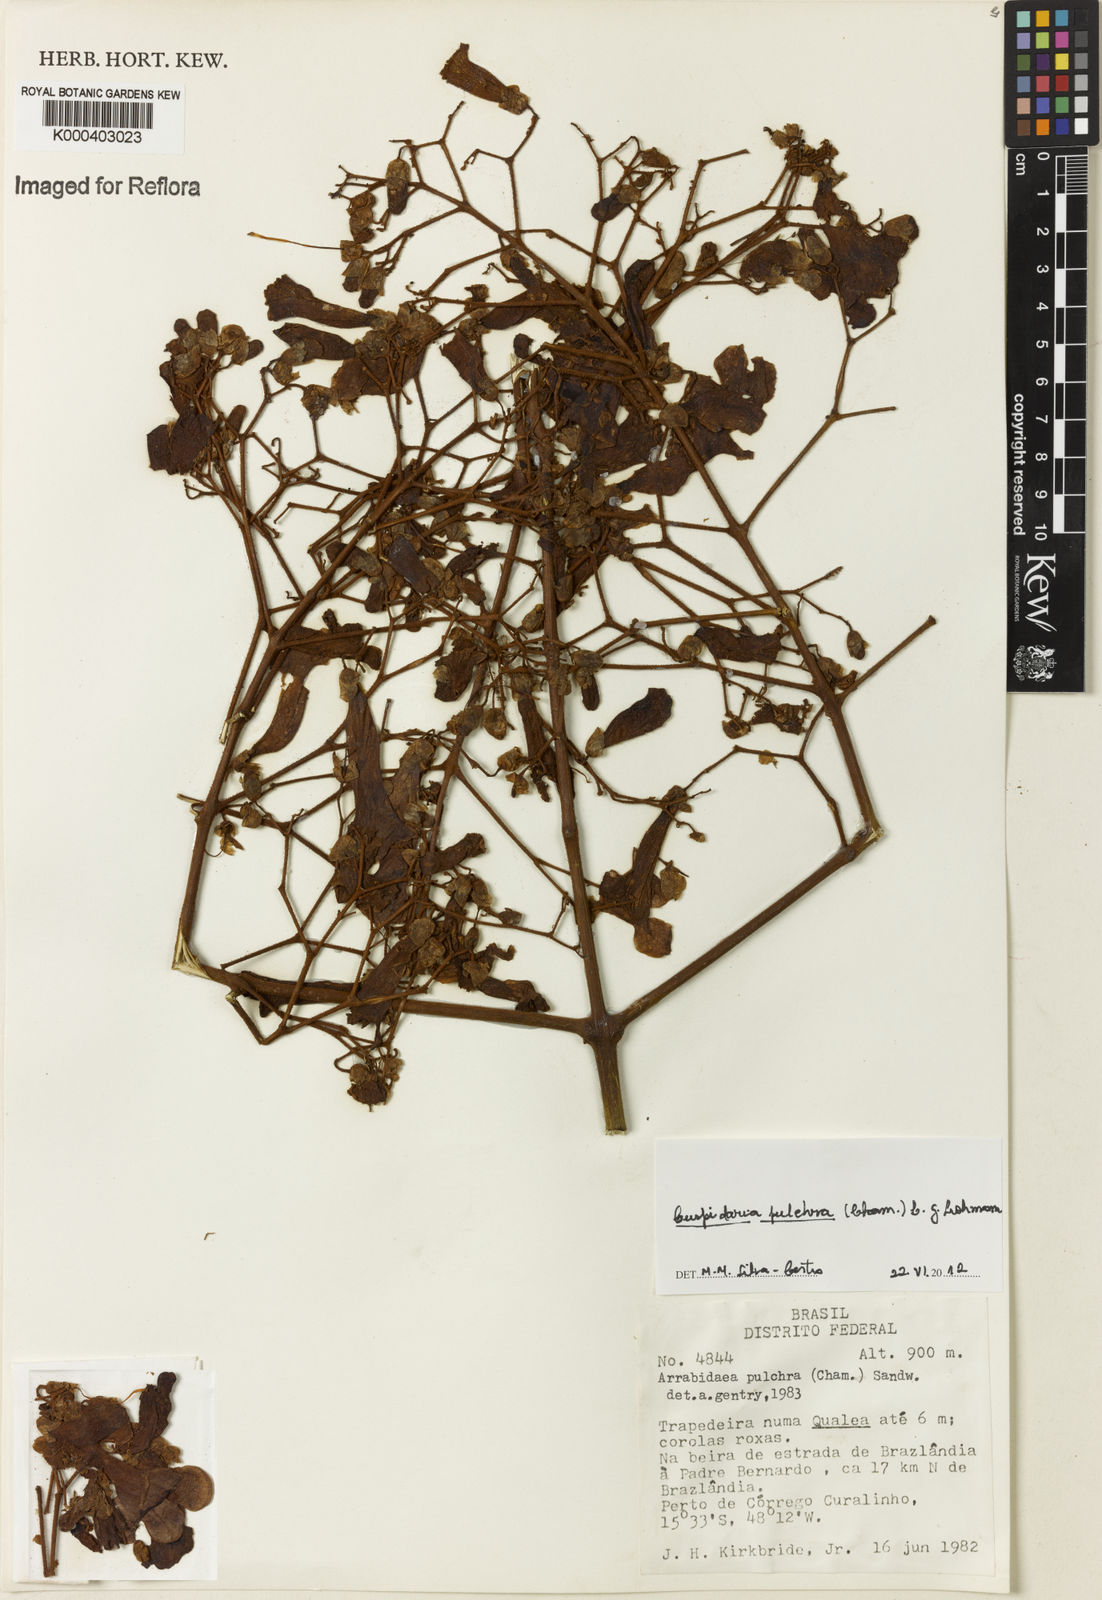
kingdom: Plantae
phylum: Tracheophyta
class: Magnoliopsida
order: Lamiales
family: Bignoniaceae
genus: Cuspidaria
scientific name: Cuspidaria pulchra
